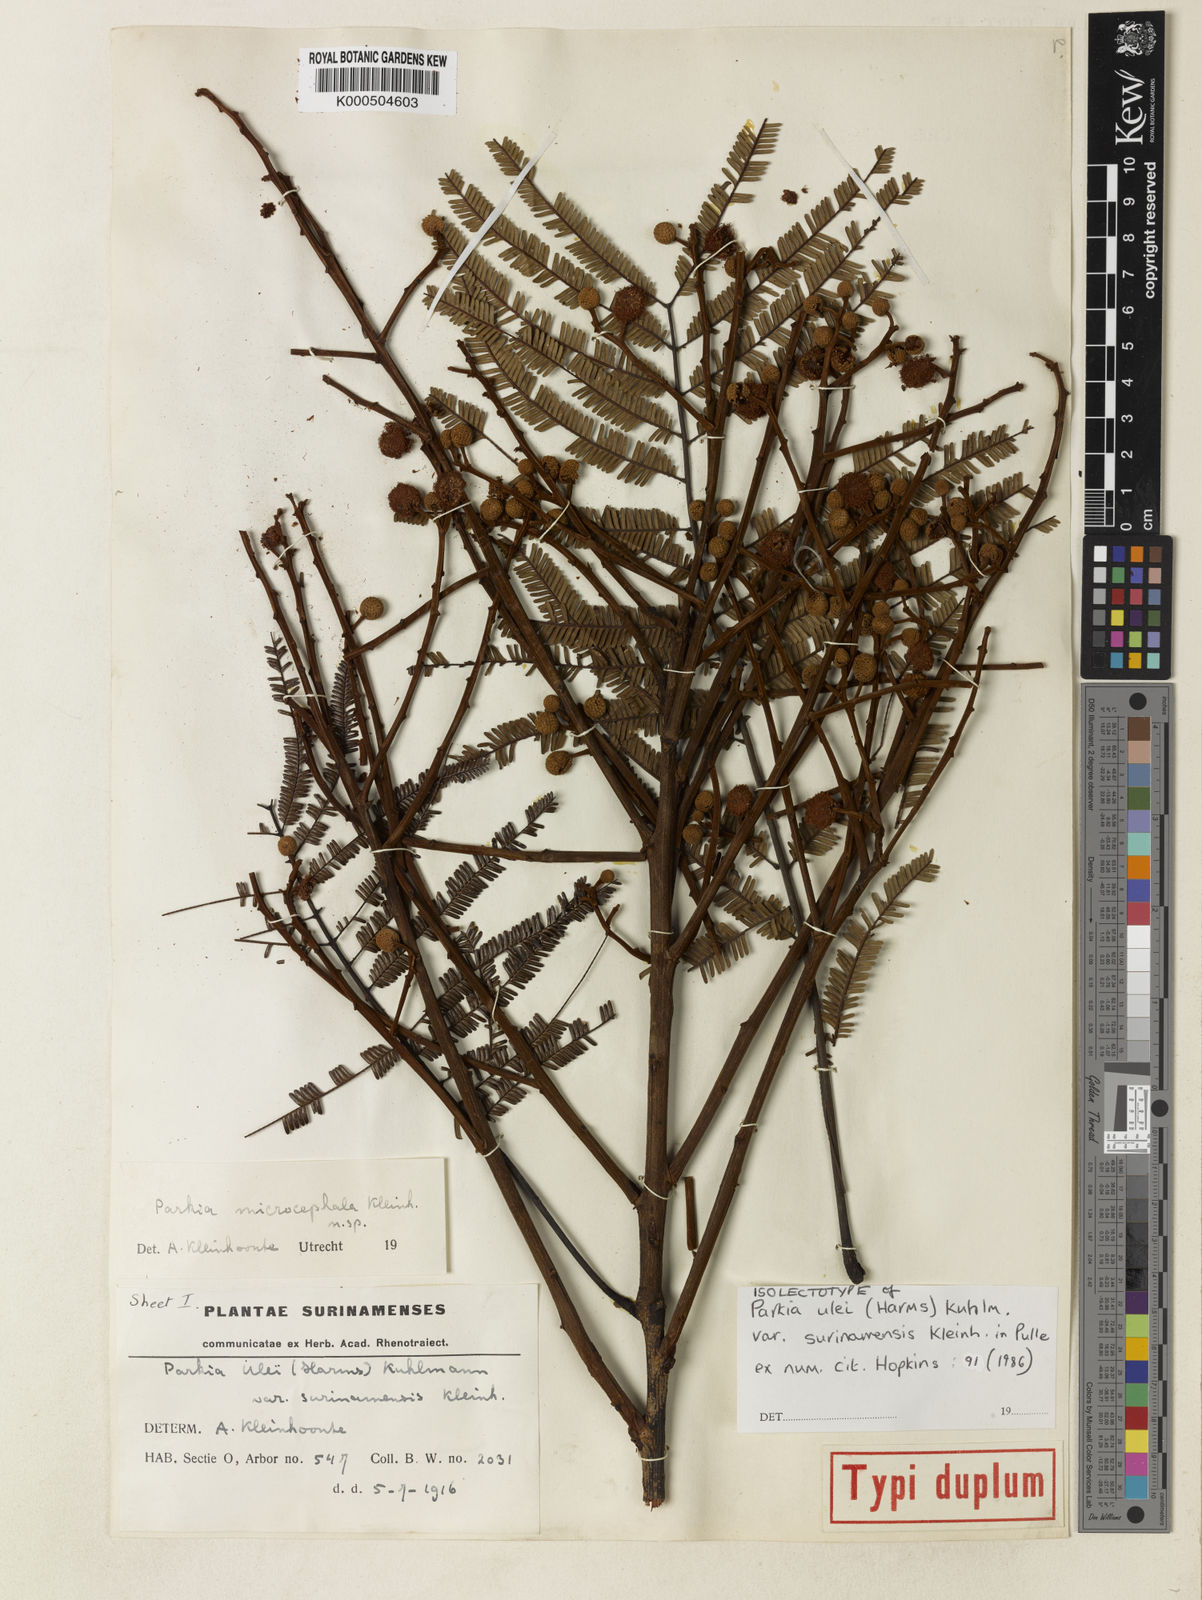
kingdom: Plantae
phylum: Tracheophyta
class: Magnoliopsida
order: Fabales
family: Fabaceae
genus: Parkia
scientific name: Parkia ulei
